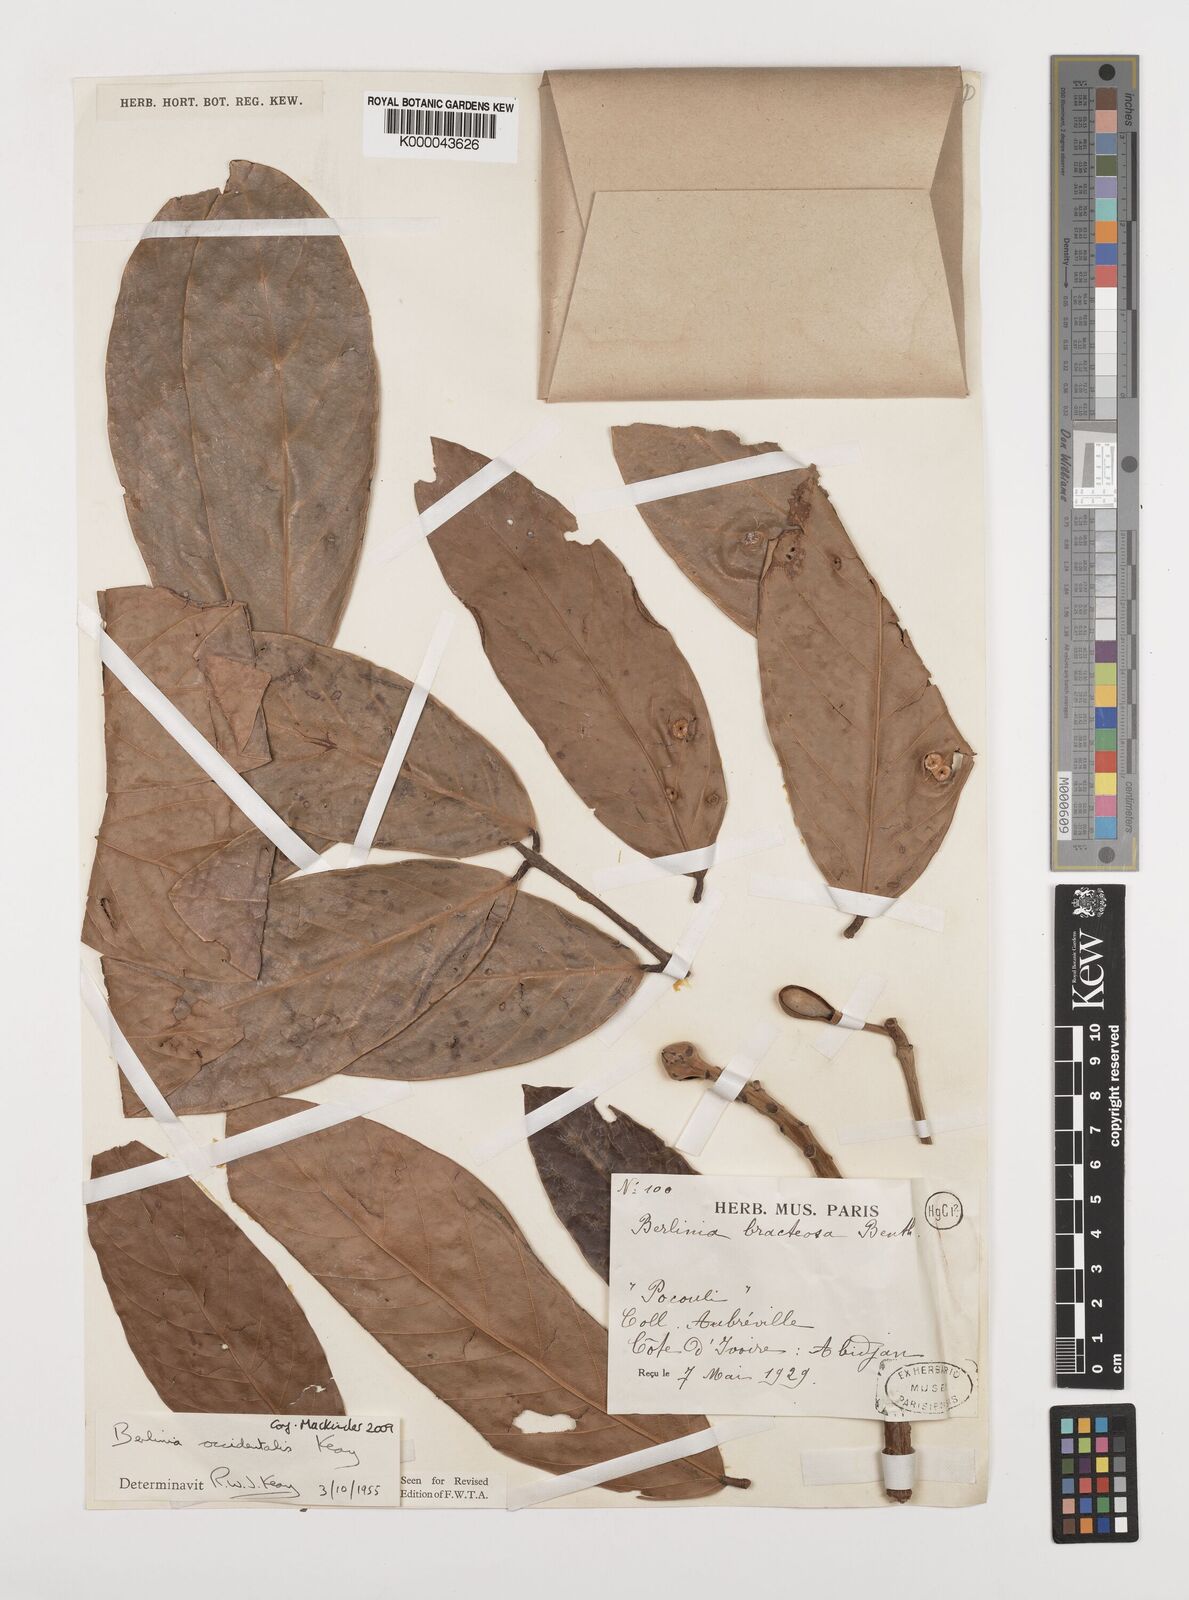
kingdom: Plantae
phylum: Tracheophyta
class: Magnoliopsida
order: Fabales
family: Fabaceae
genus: Berlinia
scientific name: Berlinia occidentalis
